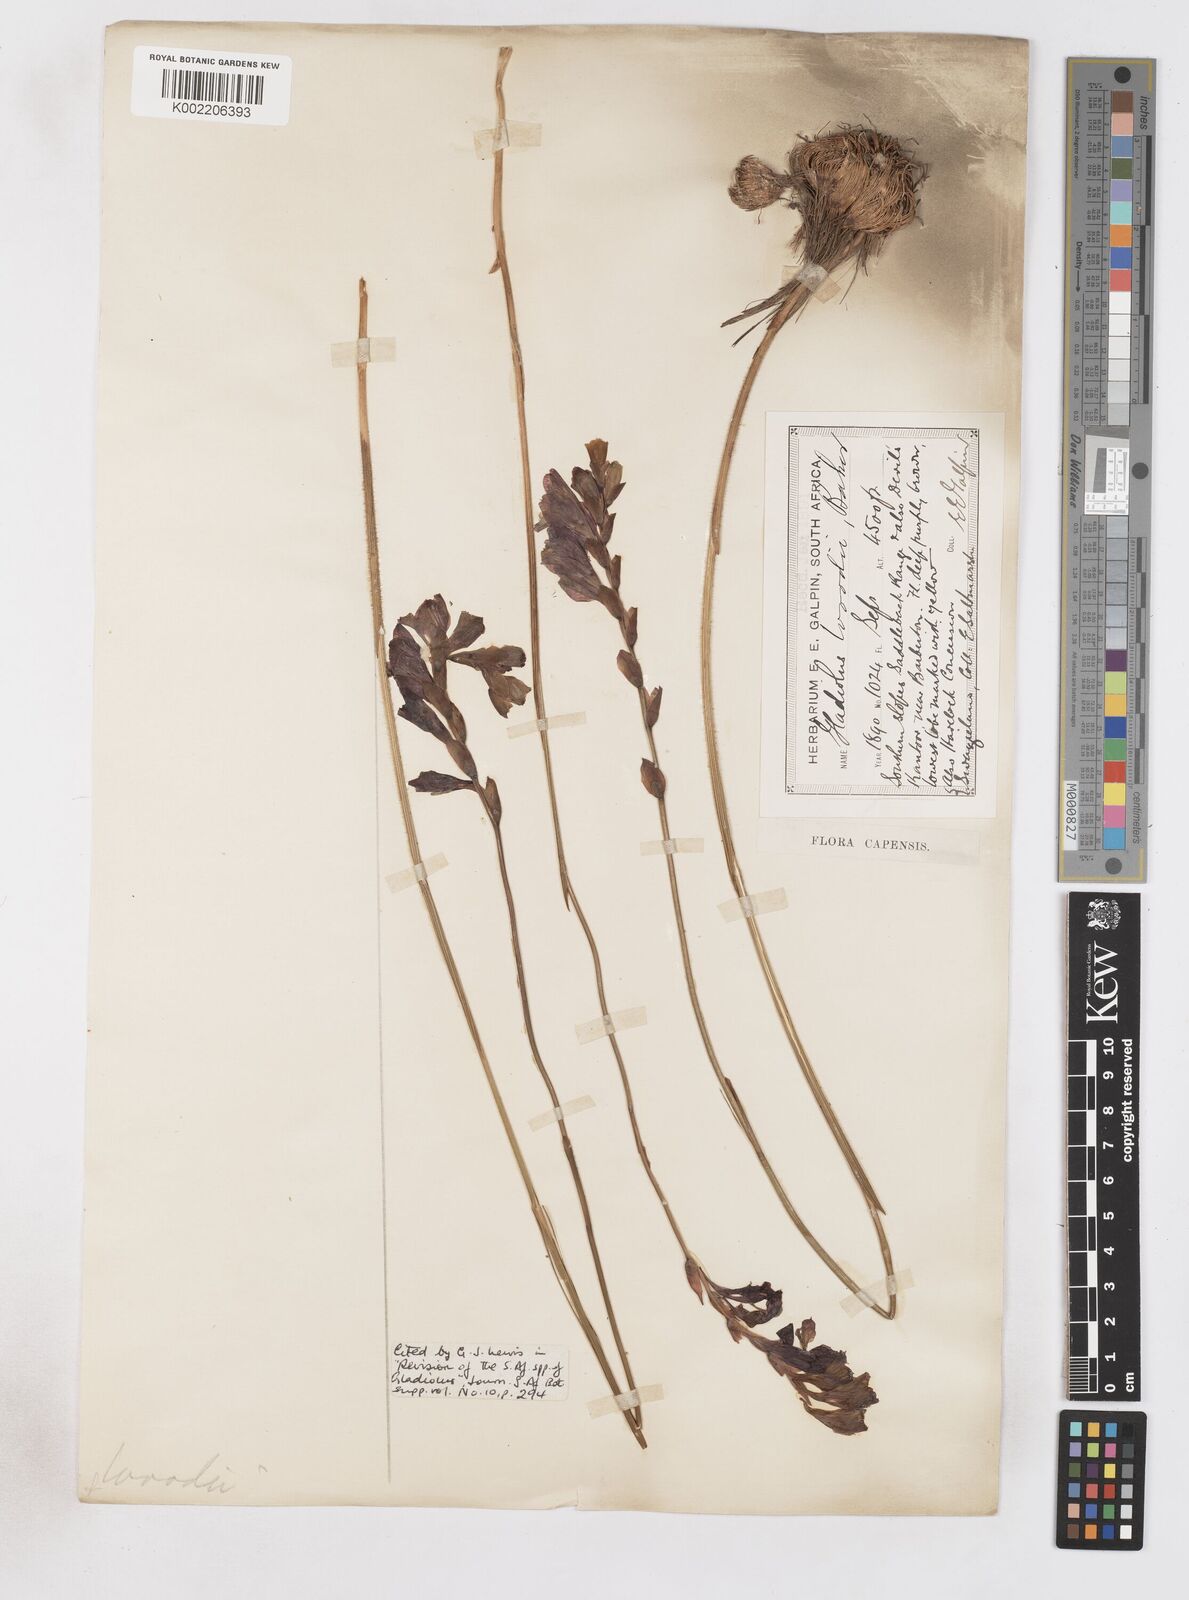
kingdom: Plantae
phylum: Tracheophyta
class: Liliopsida
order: Asparagales
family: Iridaceae
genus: Gladiolus
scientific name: Gladiolus woodii
